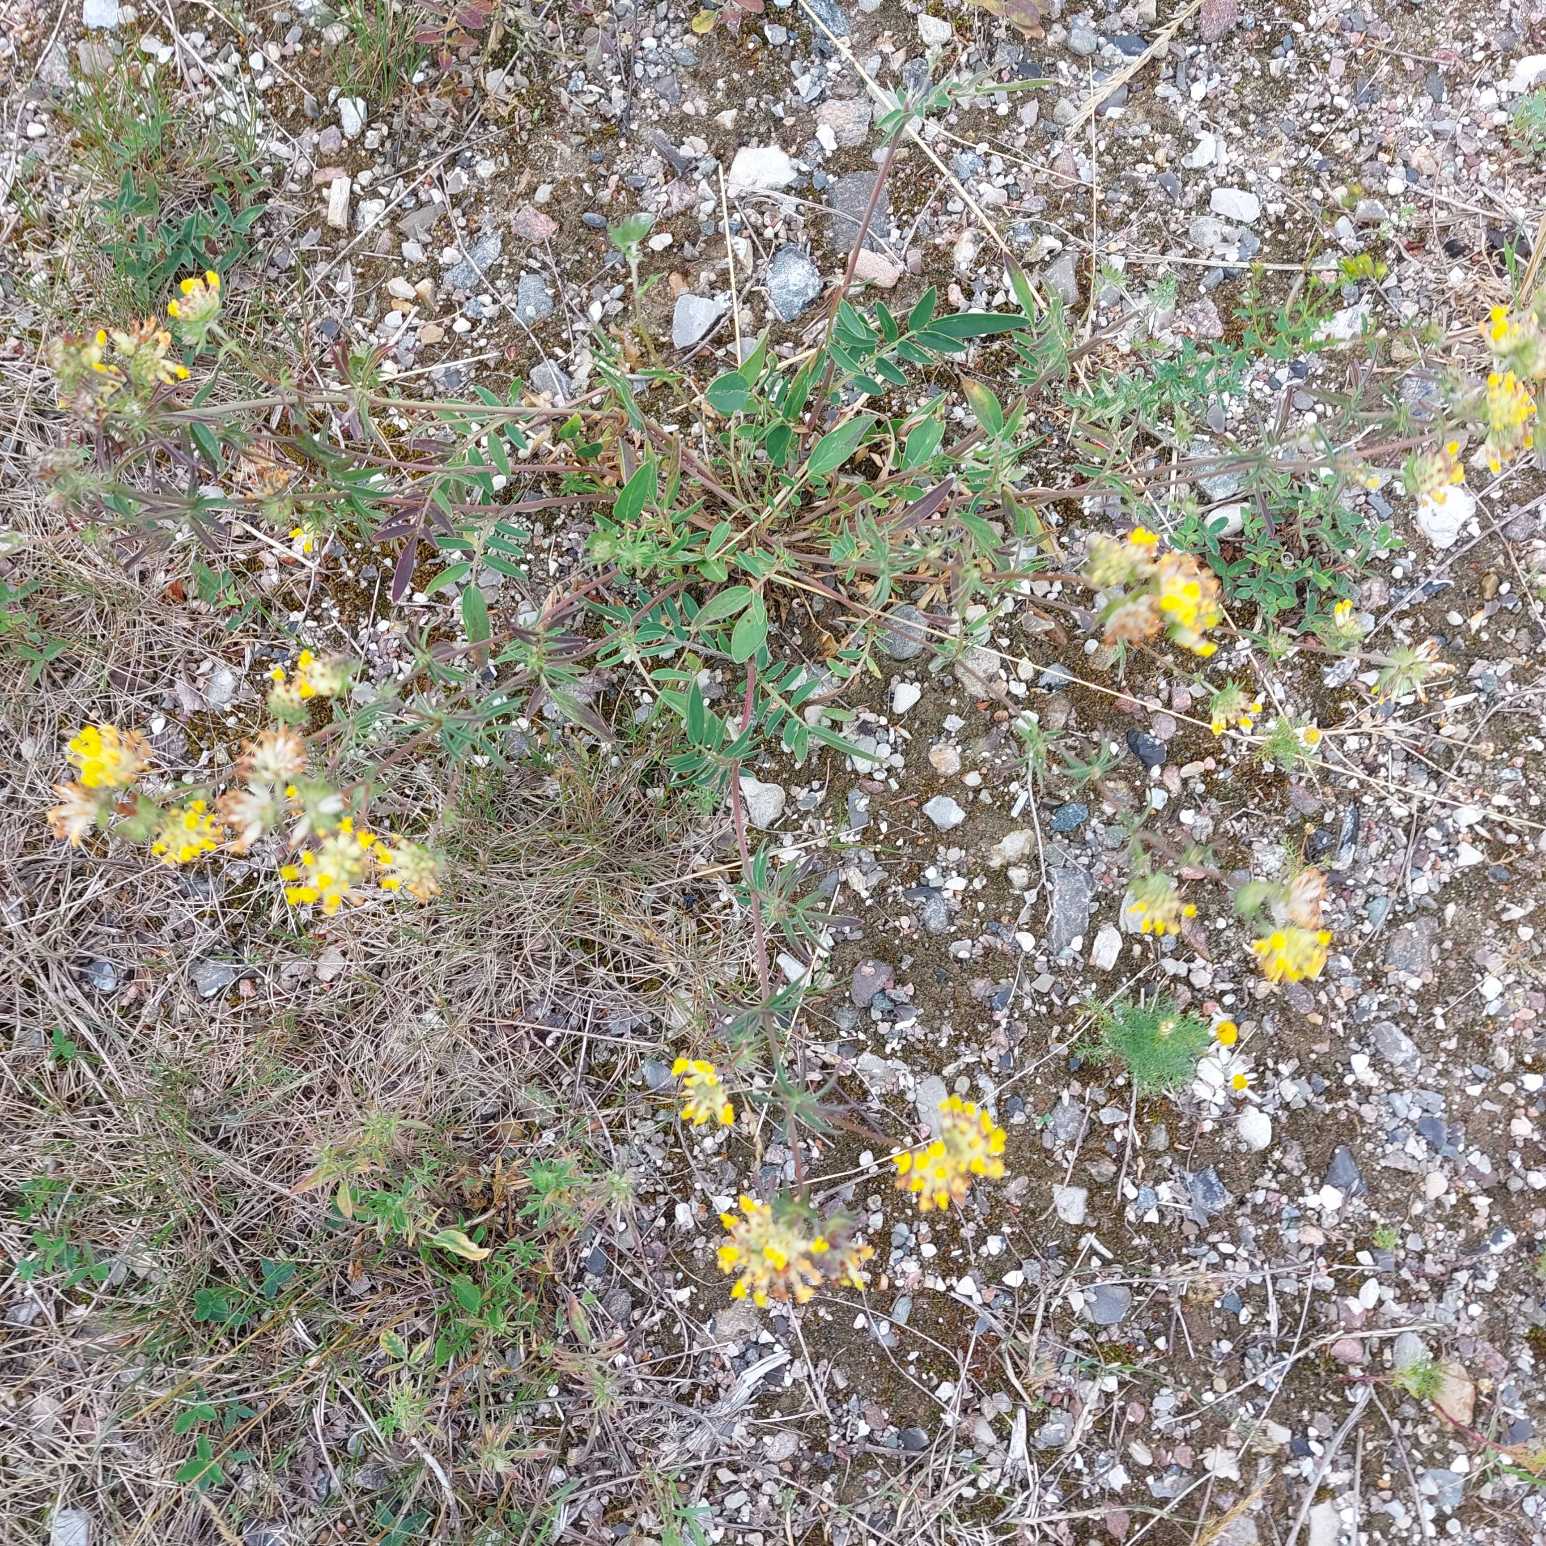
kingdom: Plantae
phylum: Tracheophyta
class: Magnoliopsida
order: Fabales
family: Fabaceae
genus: Anthyllis
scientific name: Anthyllis vulneraria
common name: Rundbælg
